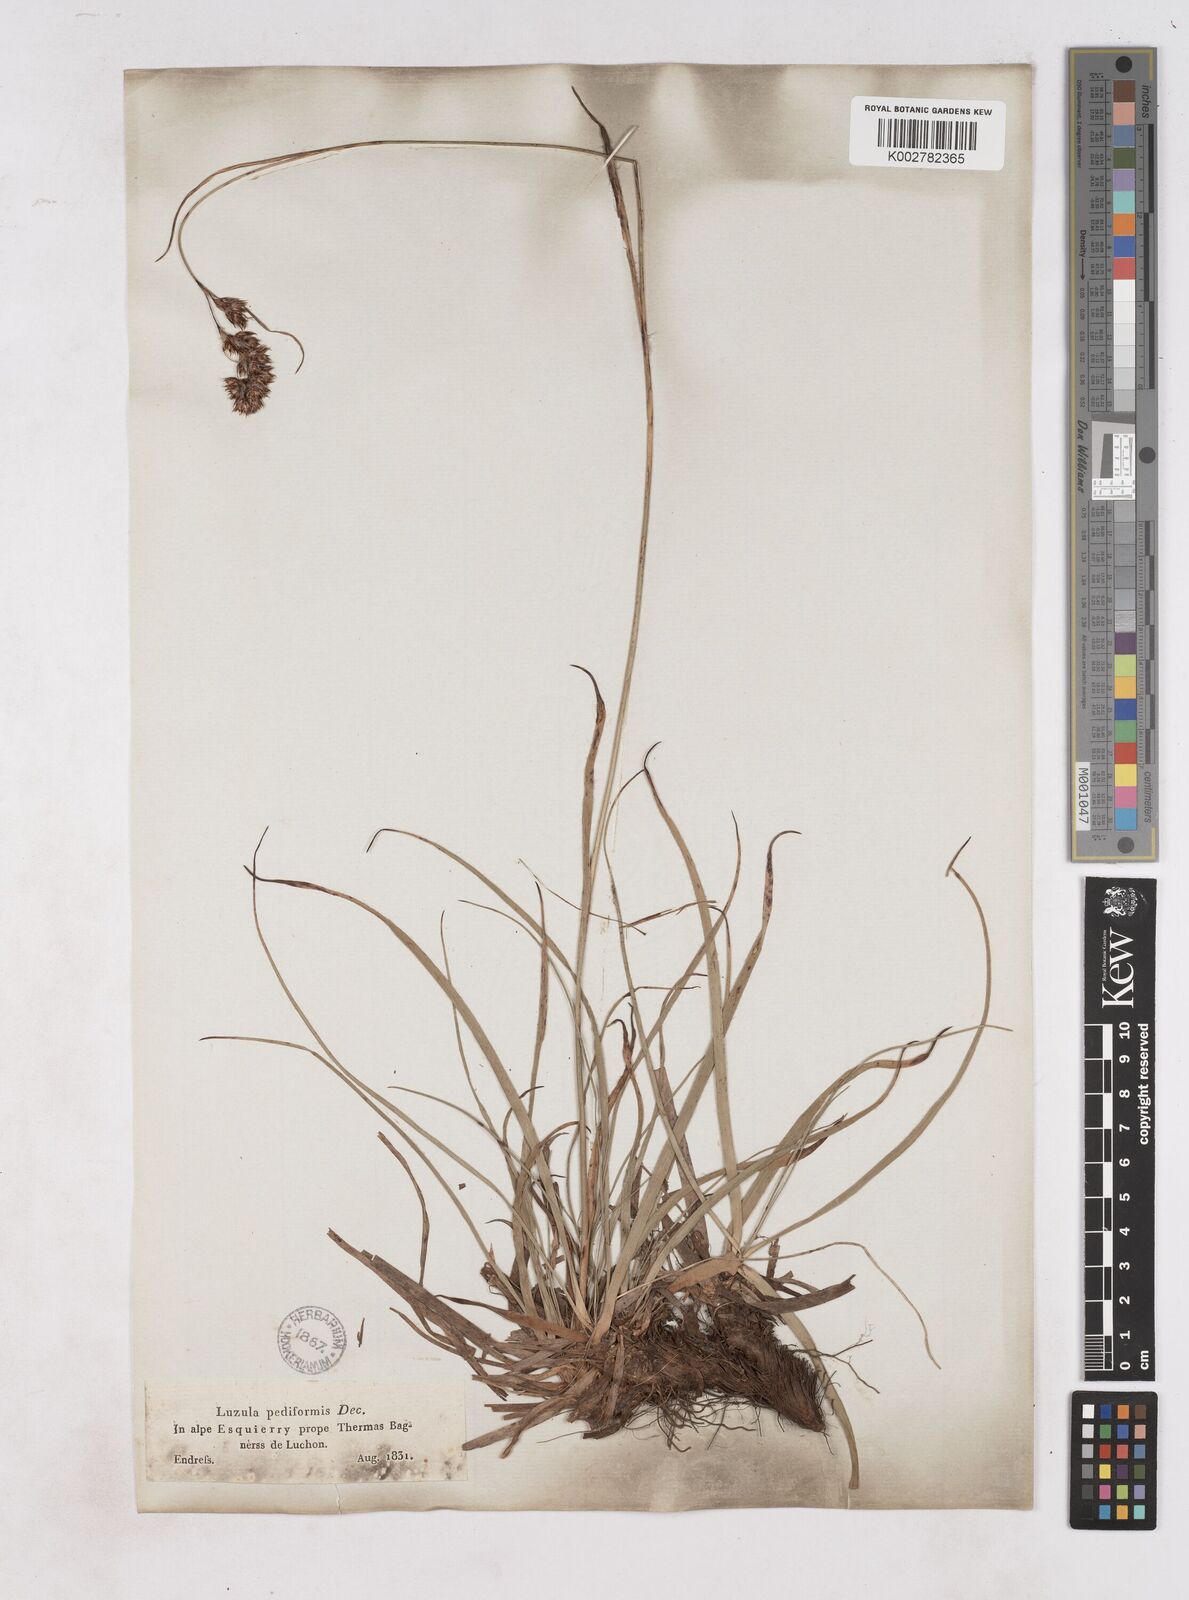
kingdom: Plantae
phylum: Tracheophyta
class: Liliopsida
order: Poales
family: Juncaceae
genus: Luzula
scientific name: Luzula pediformis
